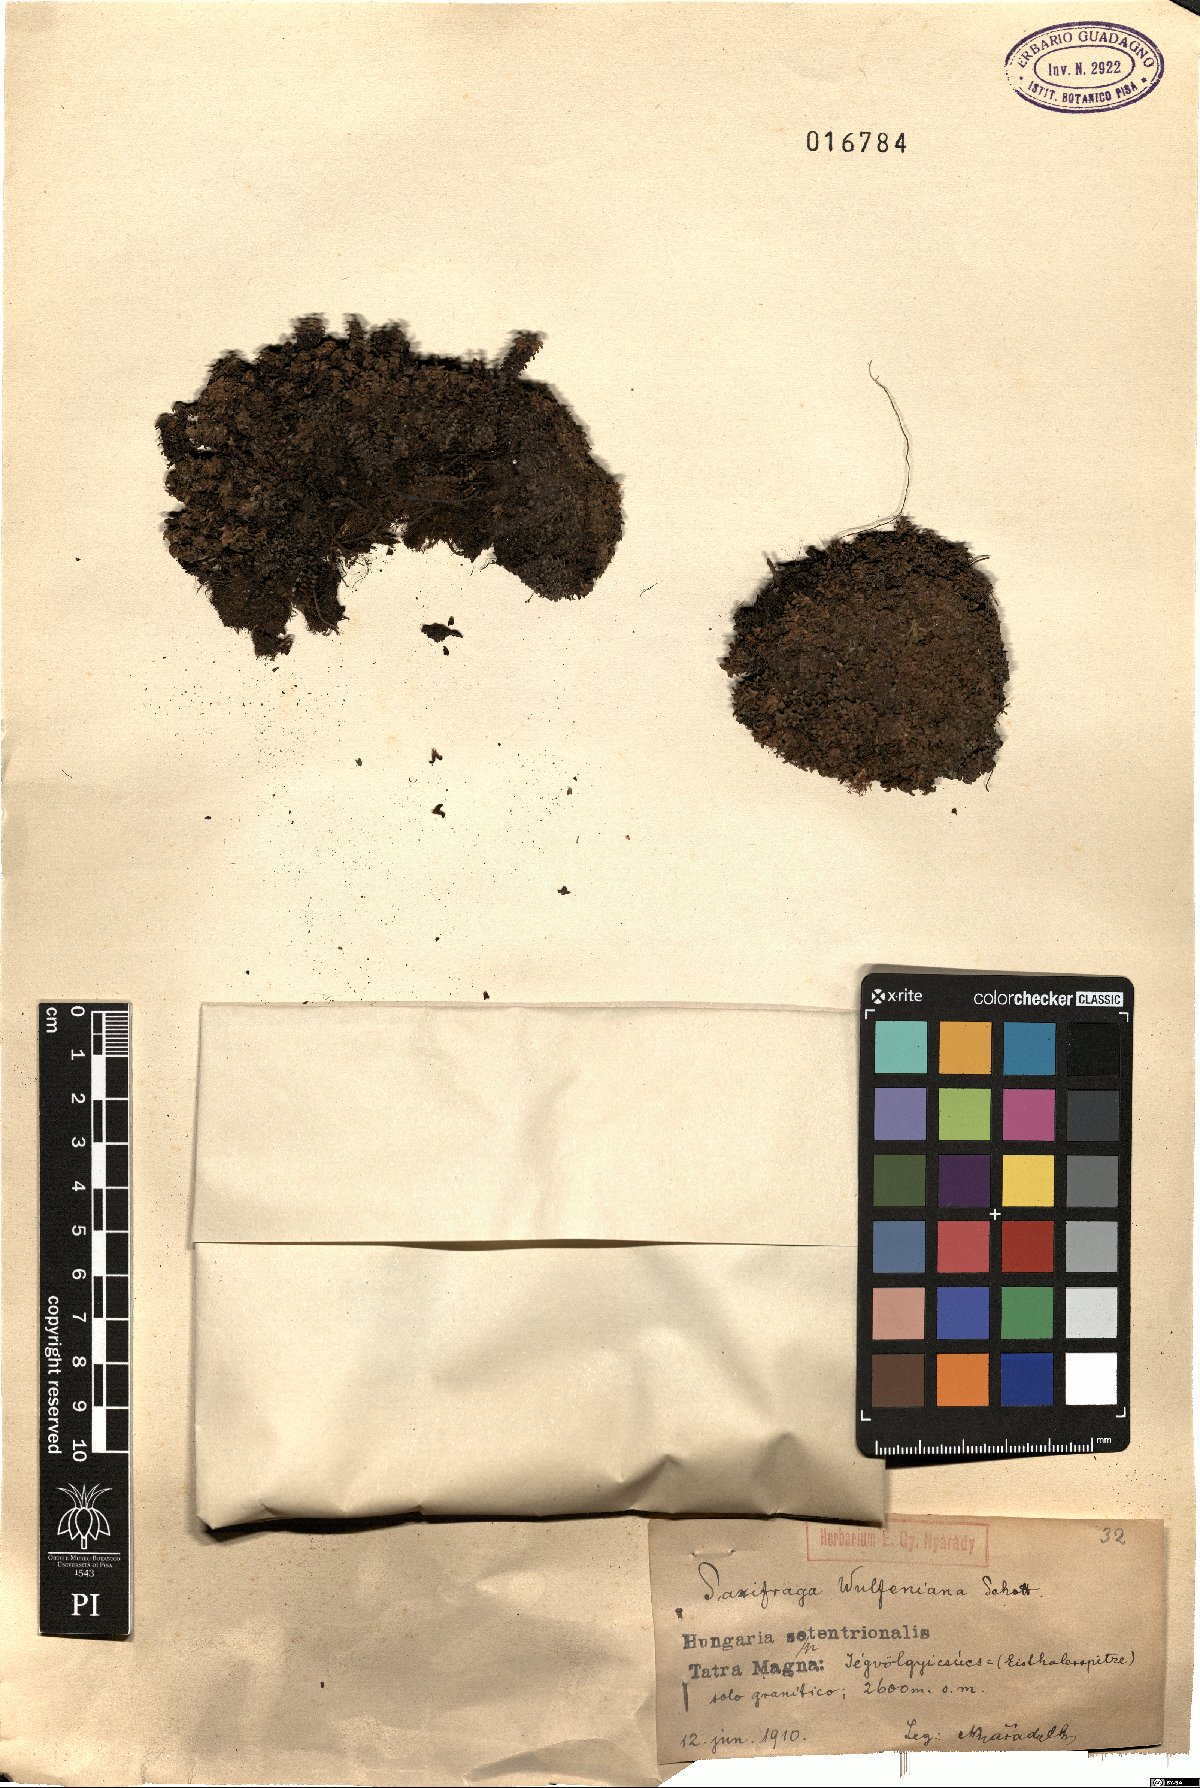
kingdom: Plantae
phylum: Tracheophyta
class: Magnoliopsida
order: Saxifragales
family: Saxifragaceae
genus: Saxifraga
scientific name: Saxifraga retusa
